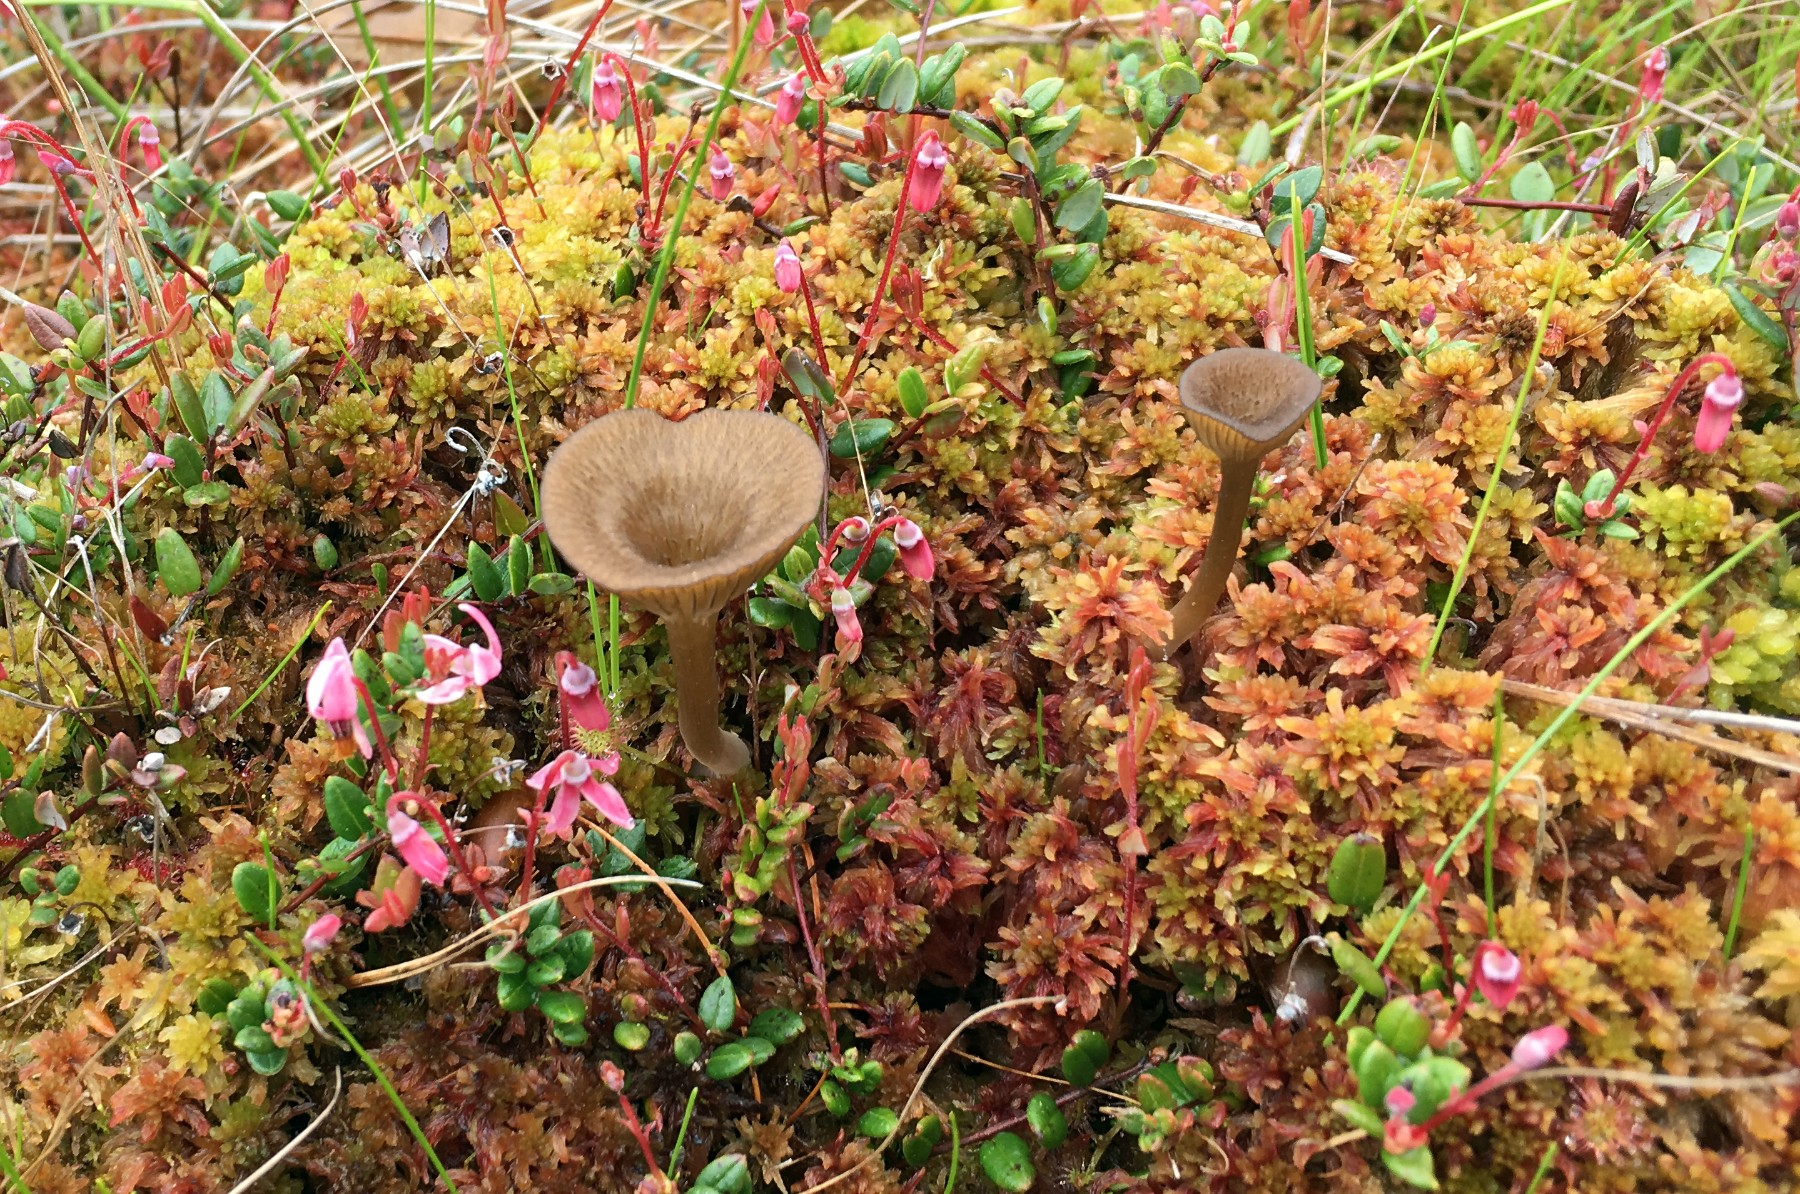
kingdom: Fungi
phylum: Basidiomycota
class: Agaricomycetes
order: Agaricales
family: Hygrophoraceae
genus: Arrhenia
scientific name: Arrhenia gerardiana
